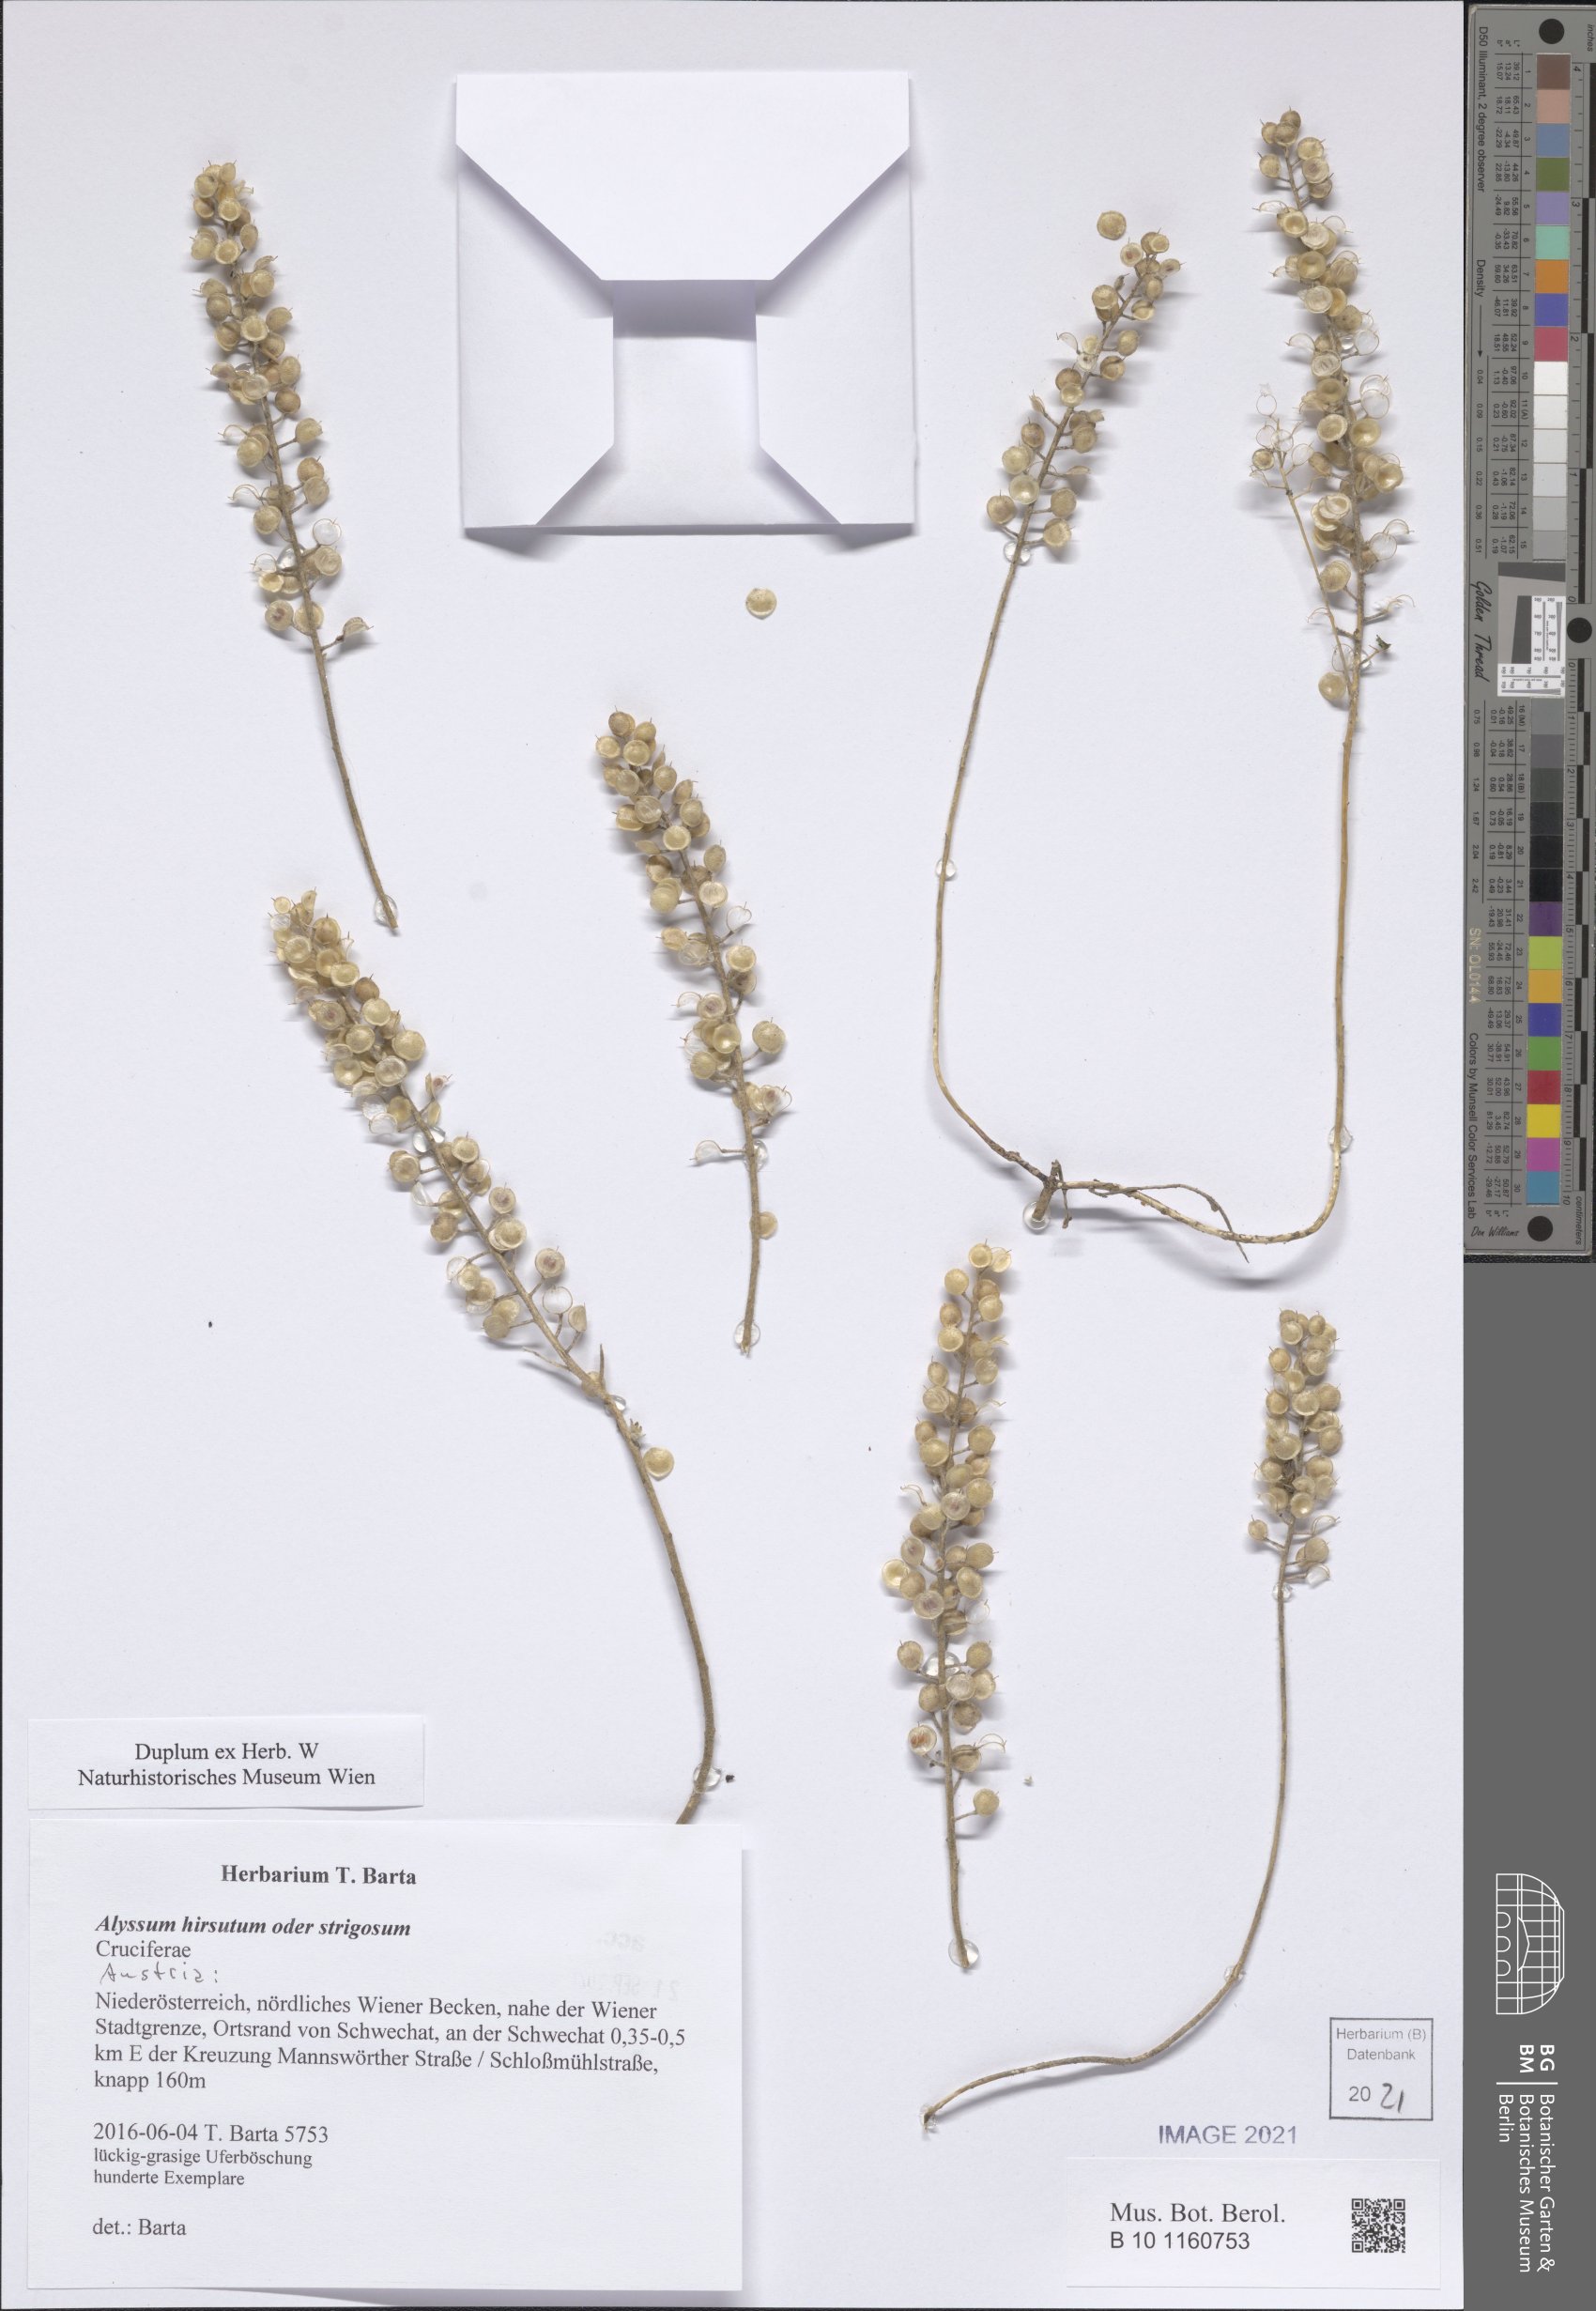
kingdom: Plantae
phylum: Tracheophyta
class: Magnoliopsida
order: Brassicales
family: Brassicaceae
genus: Alyssum
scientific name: Alyssum
